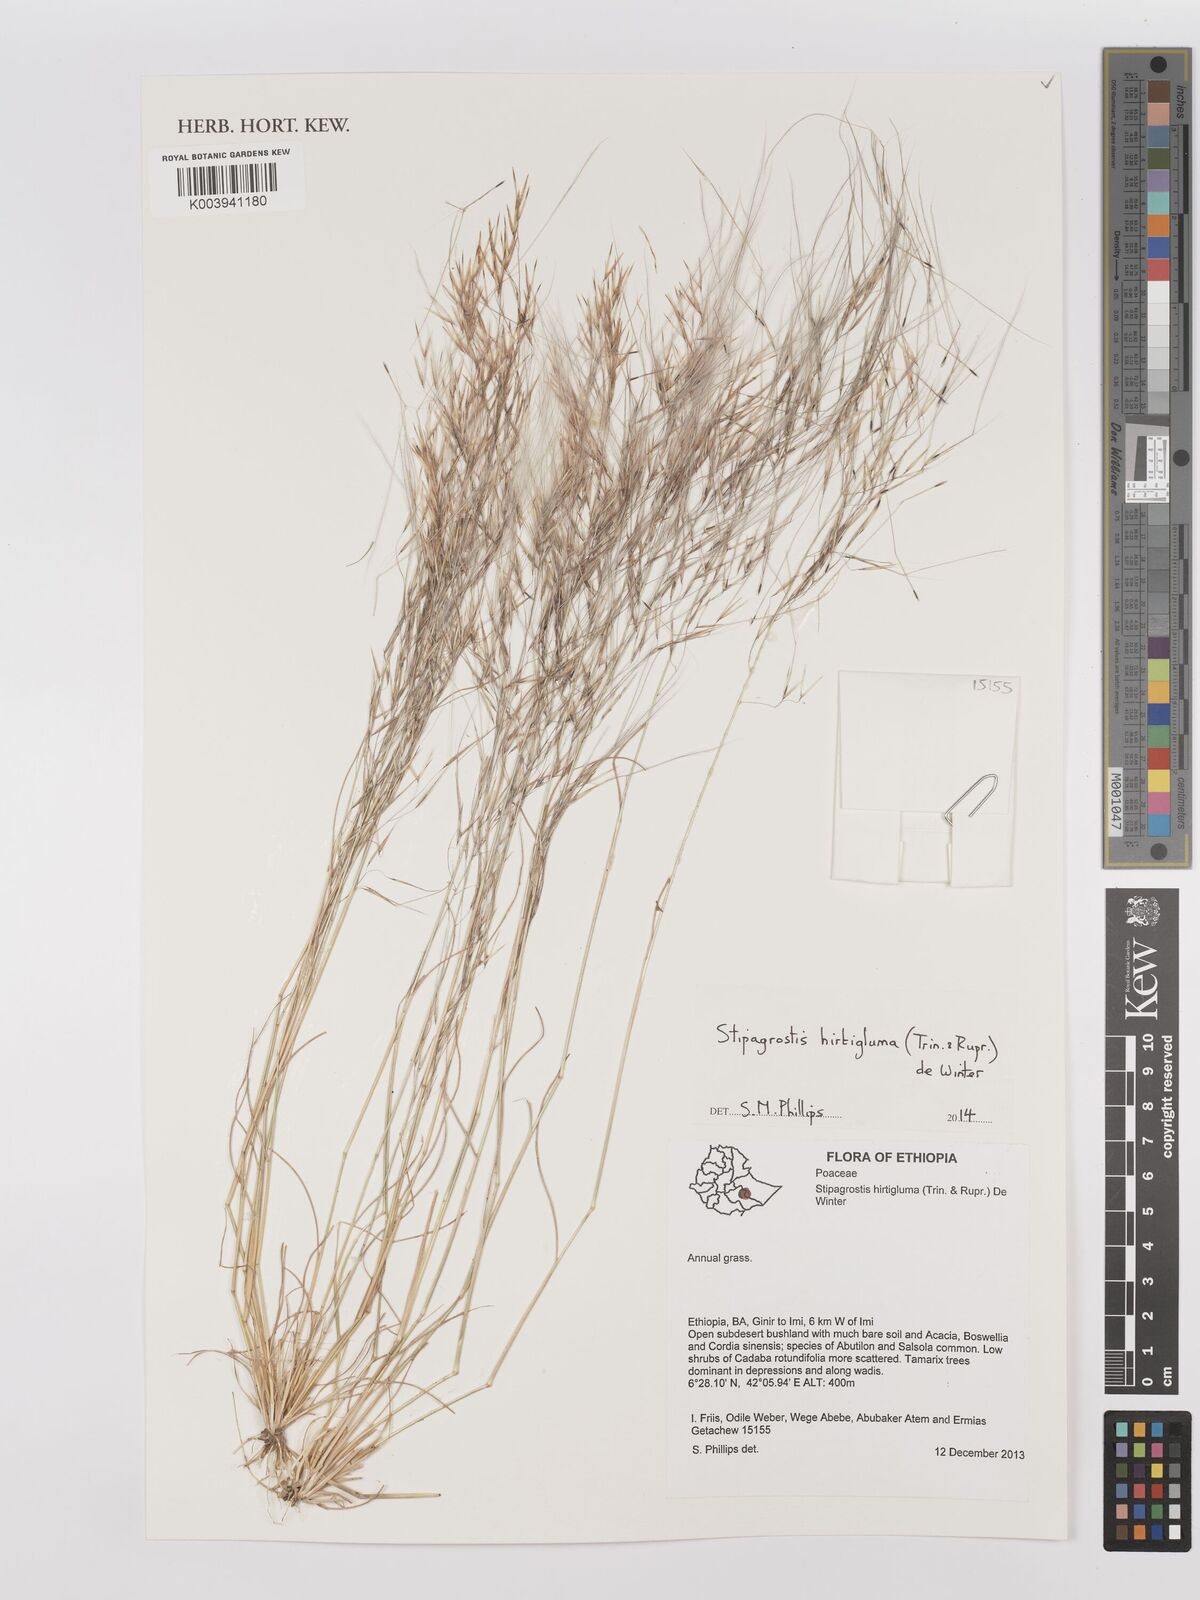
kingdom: Plantae
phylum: Tracheophyta
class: Liliopsida
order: Poales
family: Poaceae
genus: Stipagrostis
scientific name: Stipagrostis hirtigluma
